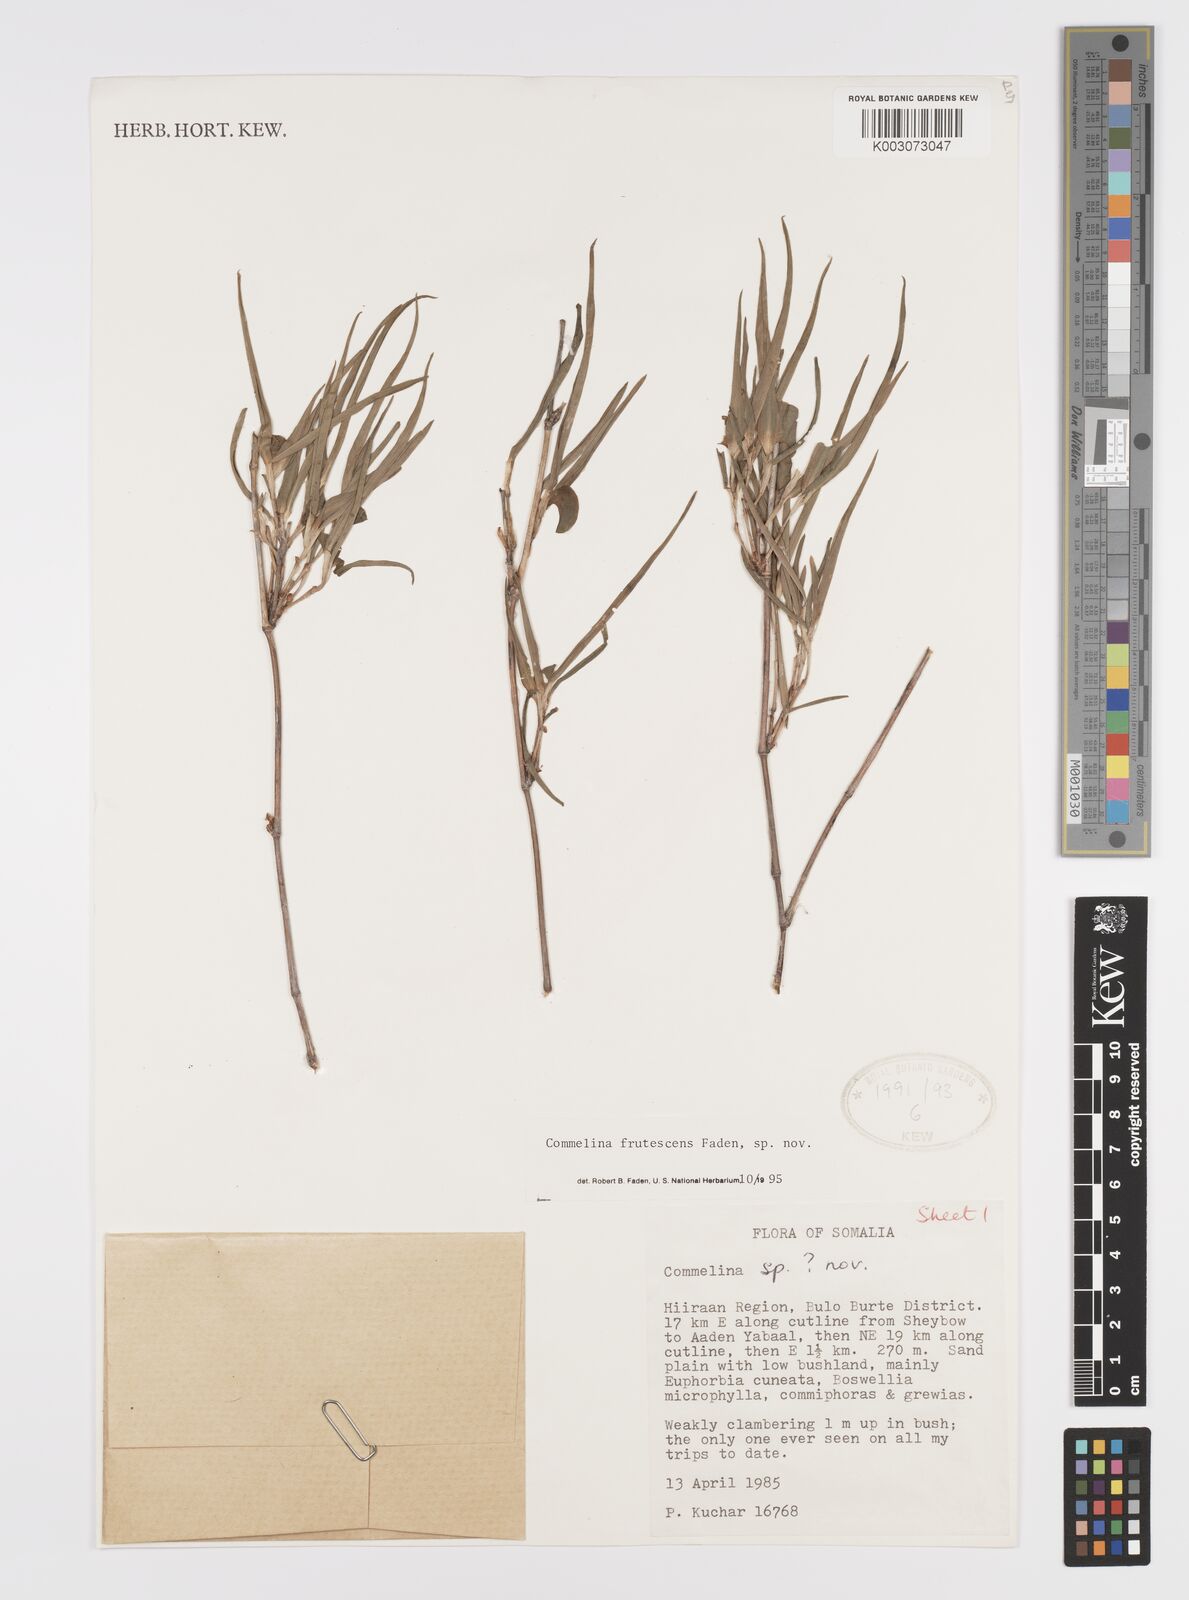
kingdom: Plantae
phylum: Tracheophyta
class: Liliopsida
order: Commelinales
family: Commelinaceae
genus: Commelina
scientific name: Commelina frutescens
